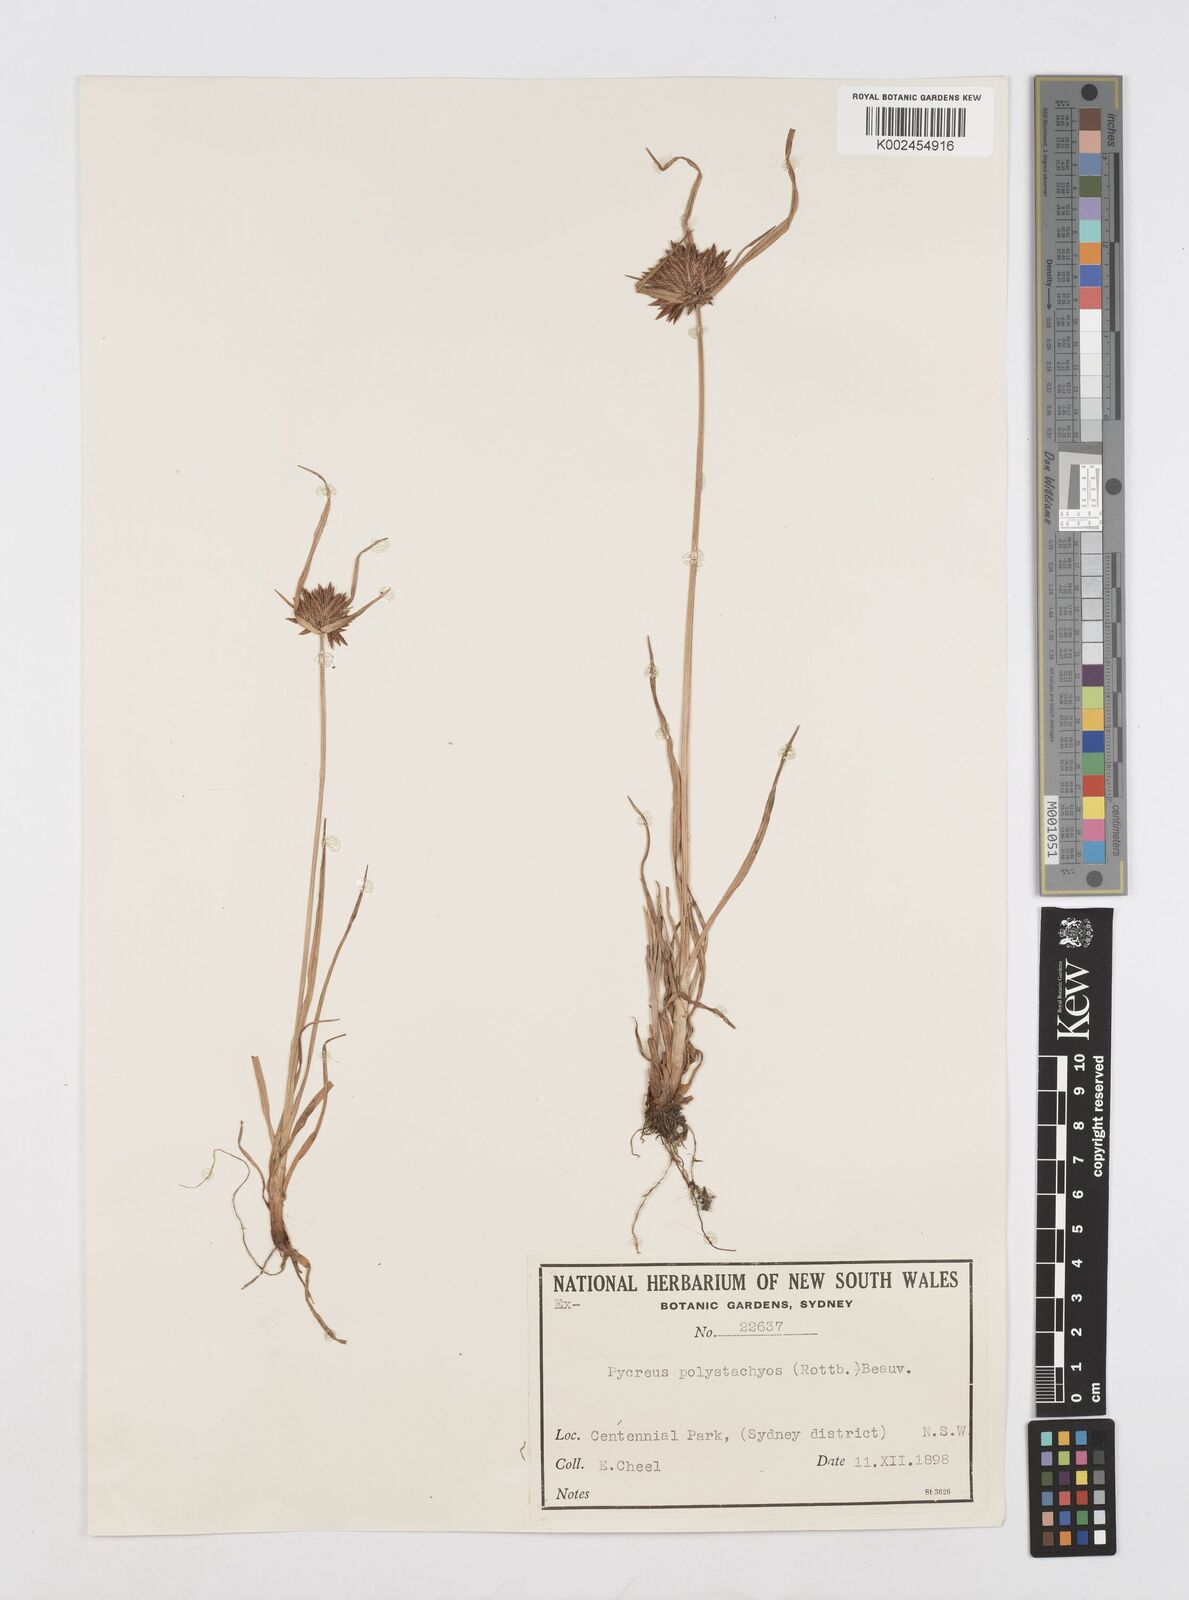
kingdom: Plantae
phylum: Tracheophyta
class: Liliopsida
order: Poales
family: Cyperaceae
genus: Cyperus
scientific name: Cyperus polystachyos
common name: Bunchy flat sedge
